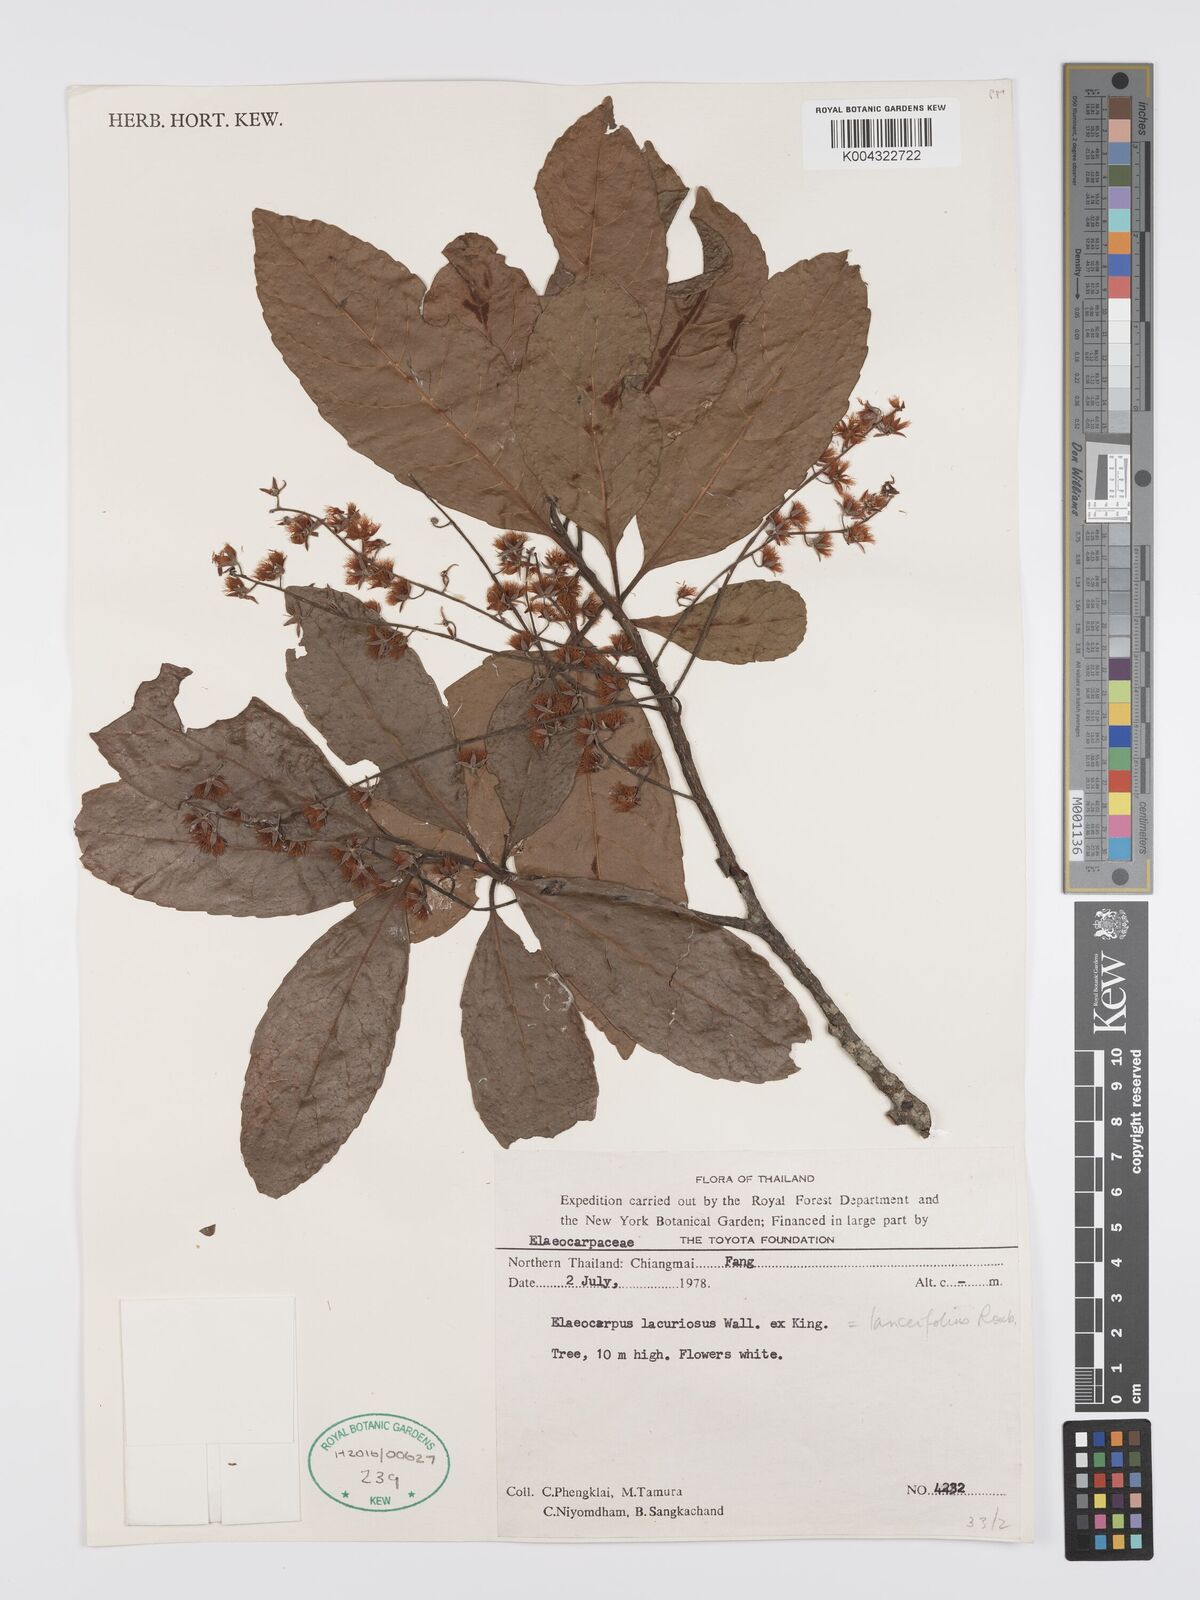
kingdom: Plantae
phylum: Tracheophyta
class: Magnoliopsida
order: Oxalidales
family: Elaeocarpaceae
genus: Elaeocarpus
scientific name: Elaeocarpus lanceifolius
